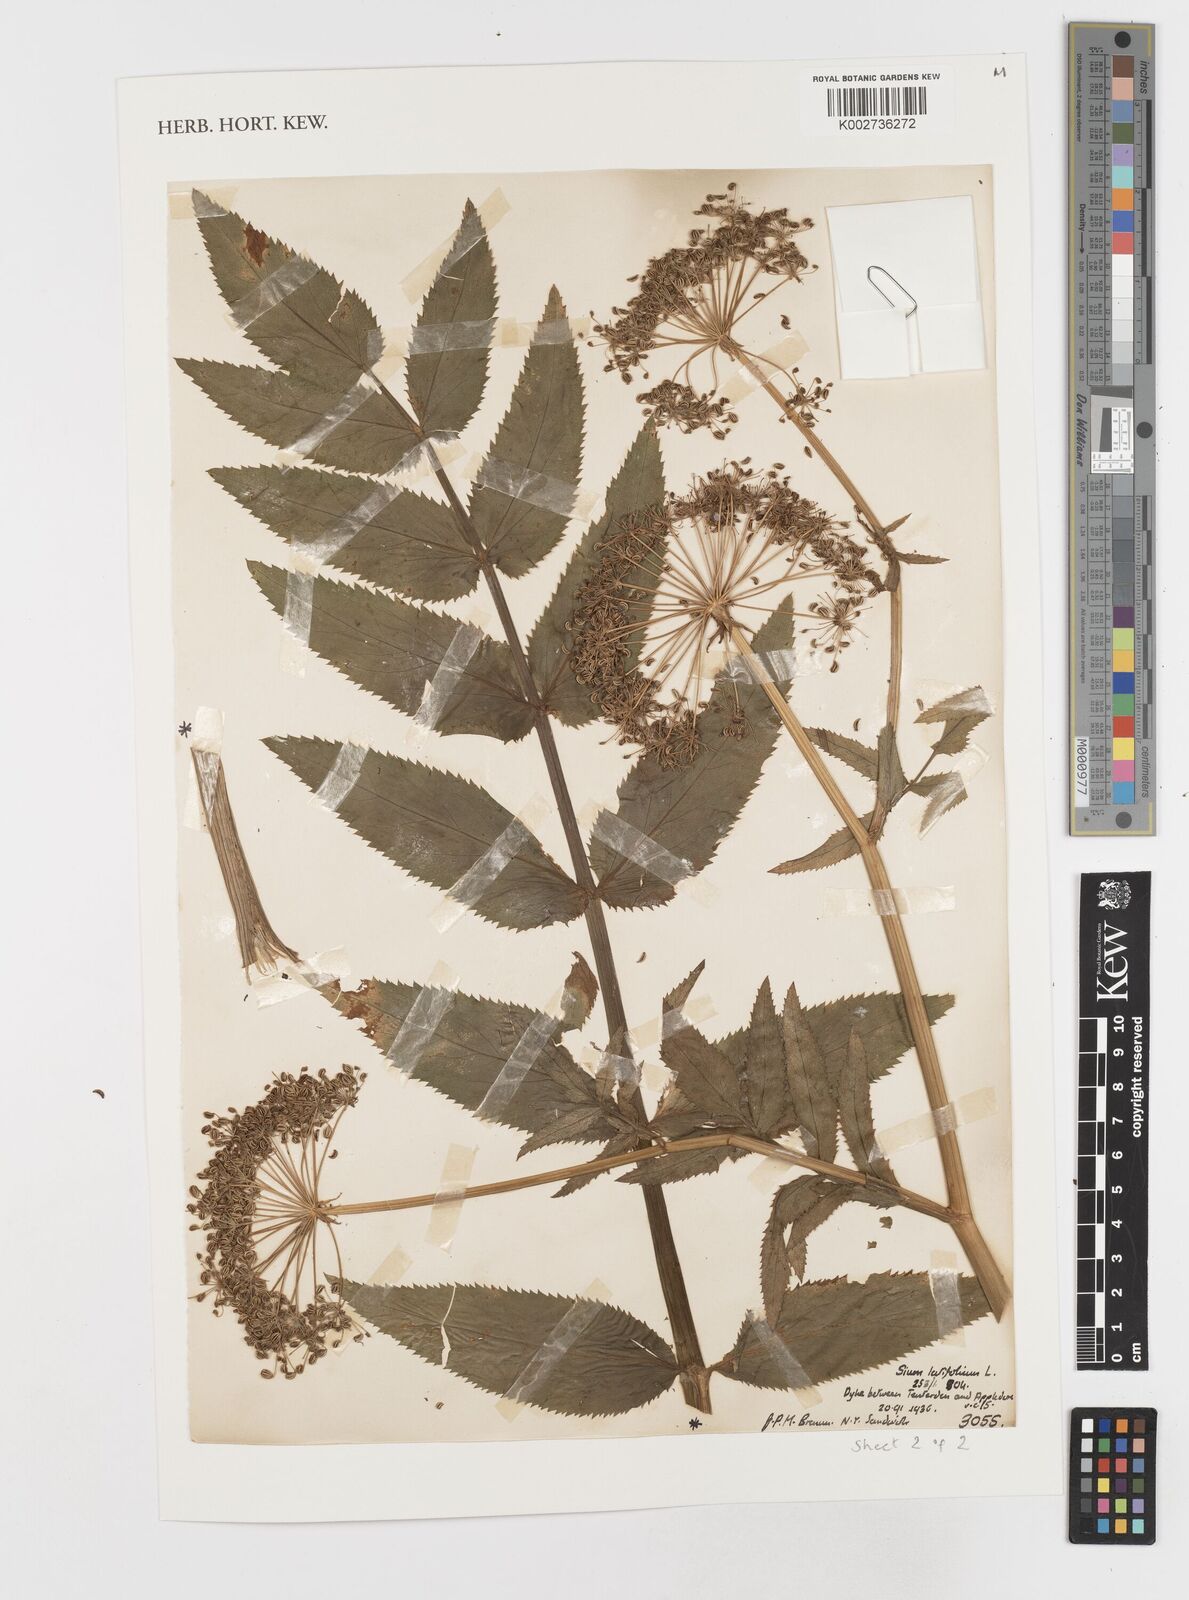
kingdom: Plantae
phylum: Tracheophyta
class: Magnoliopsida
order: Apiales
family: Apiaceae
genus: Sium
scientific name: Sium latifolium
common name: Greater water-parsnip
